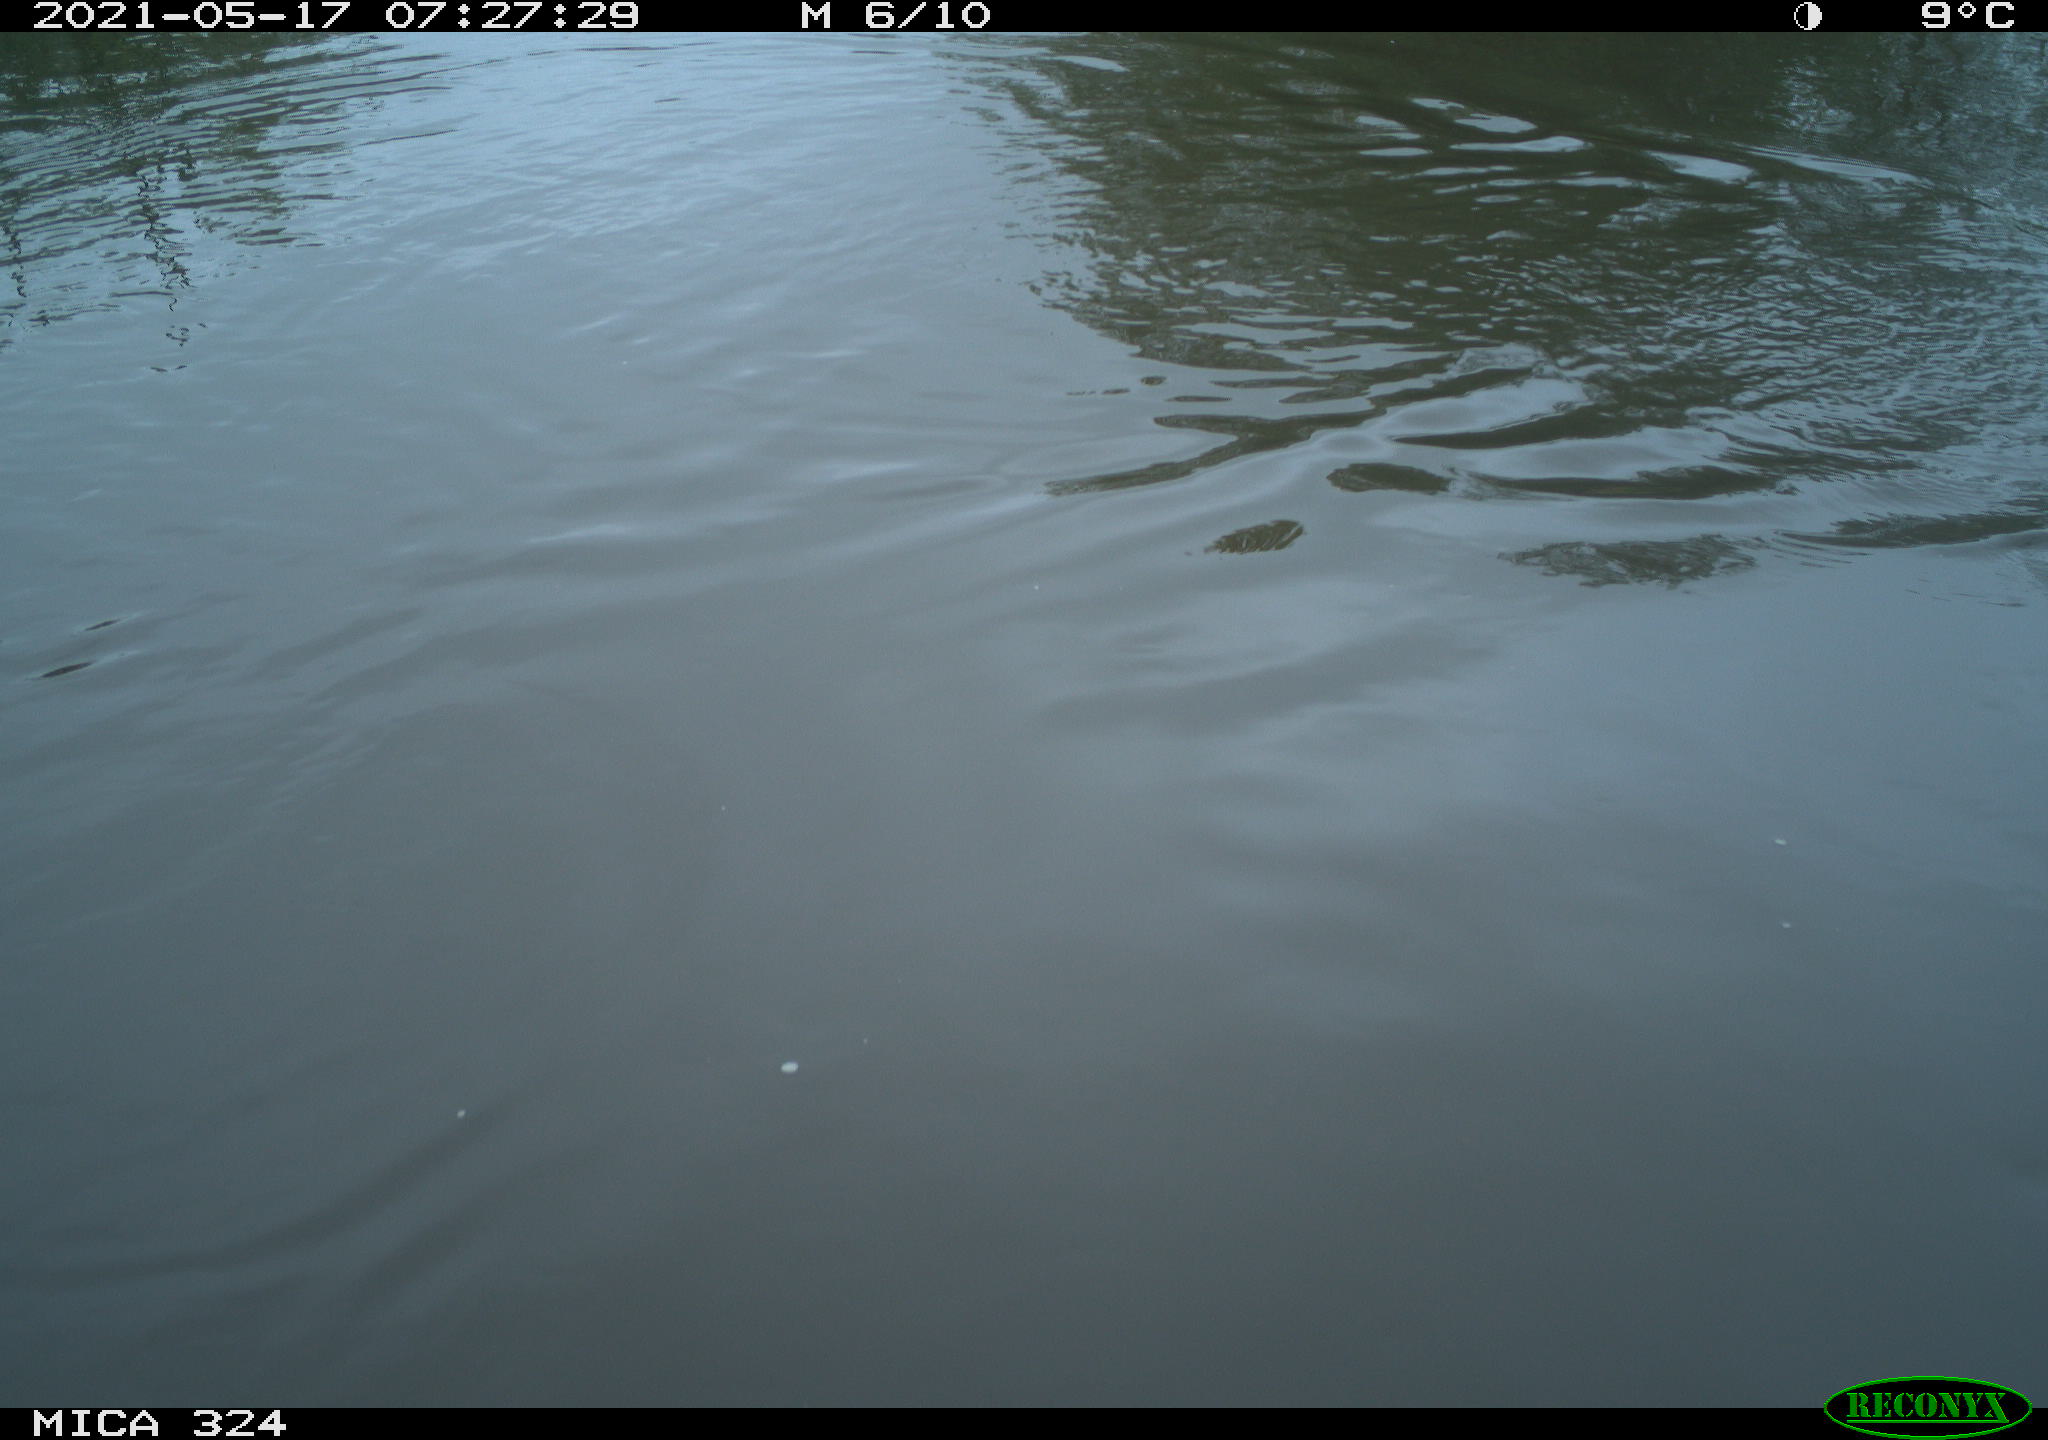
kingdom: Animalia
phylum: Chordata
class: Aves
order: Gruiformes
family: Rallidae
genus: Gallinula
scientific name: Gallinula chloropus
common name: Common moorhen
